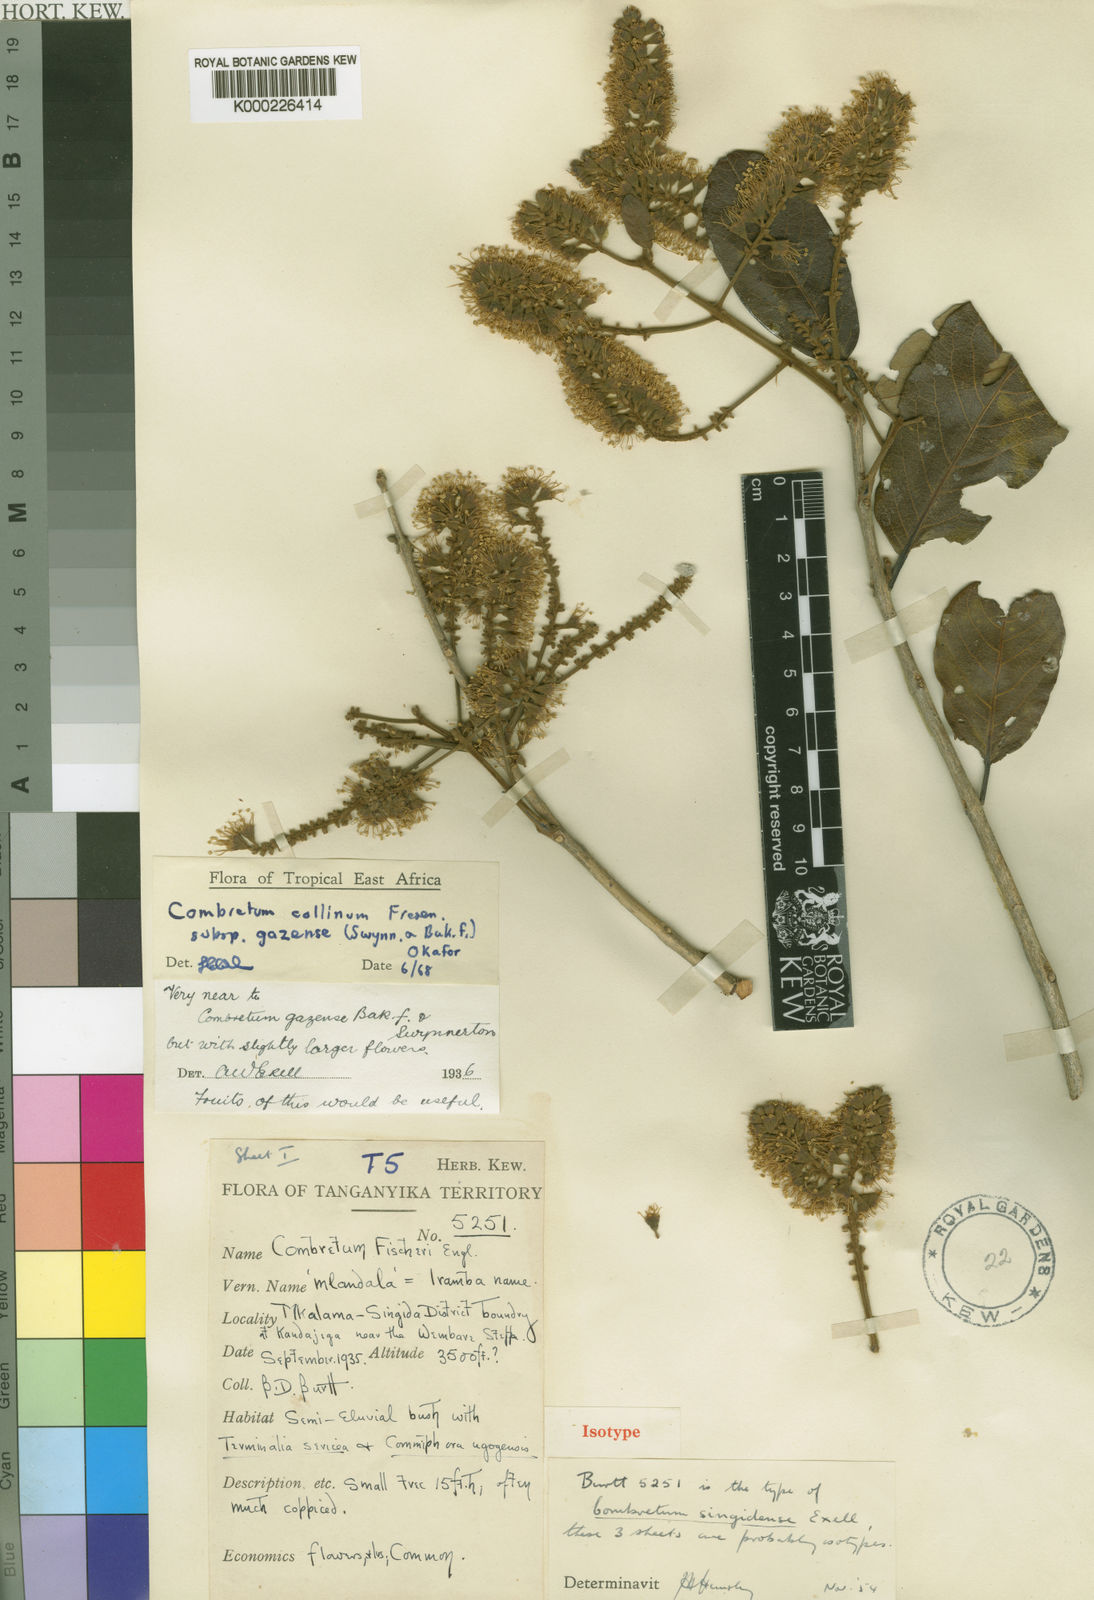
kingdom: Plantae
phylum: Tracheophyta
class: Magnoliopsida
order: Myrtales
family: Combretaceae
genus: Combretum
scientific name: Combretum collinum
